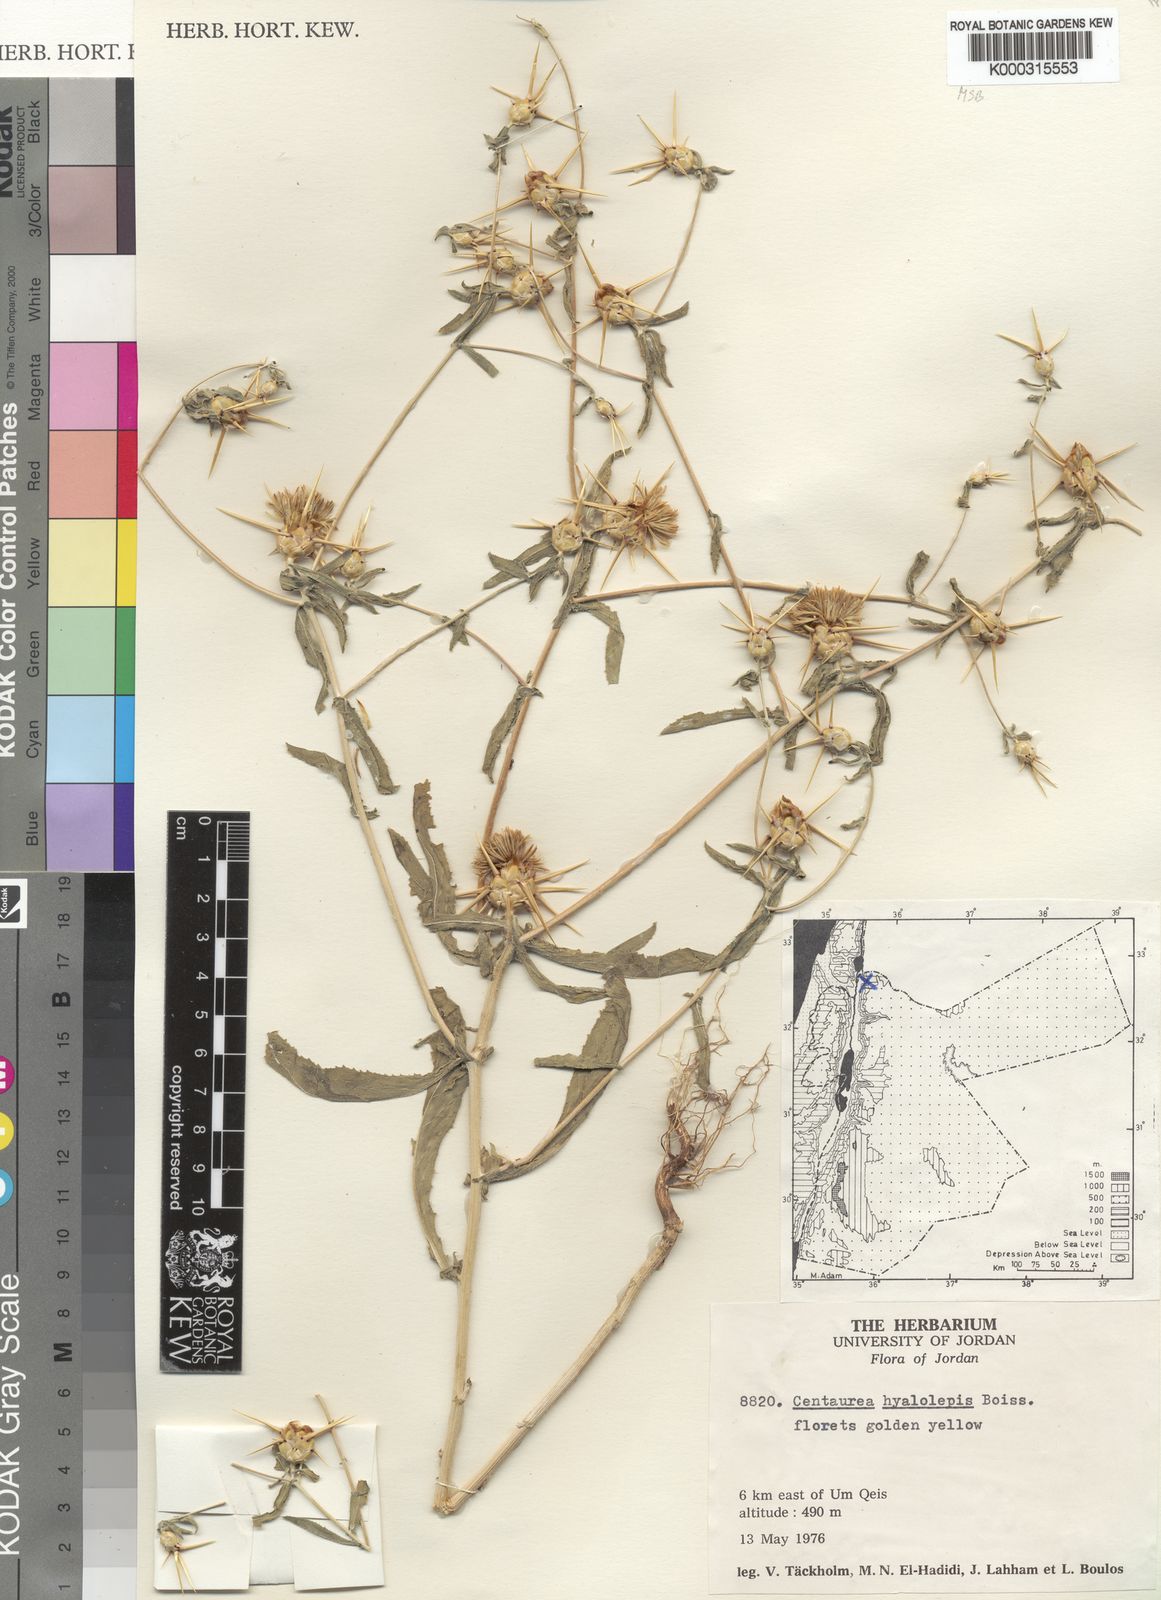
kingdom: Plantae
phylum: Tracheophyta
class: Magnoliopsida
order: Asterales
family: Asteraceae
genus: Centaurea
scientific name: Centaurea hyalolepis
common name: Eastern star-thistle
